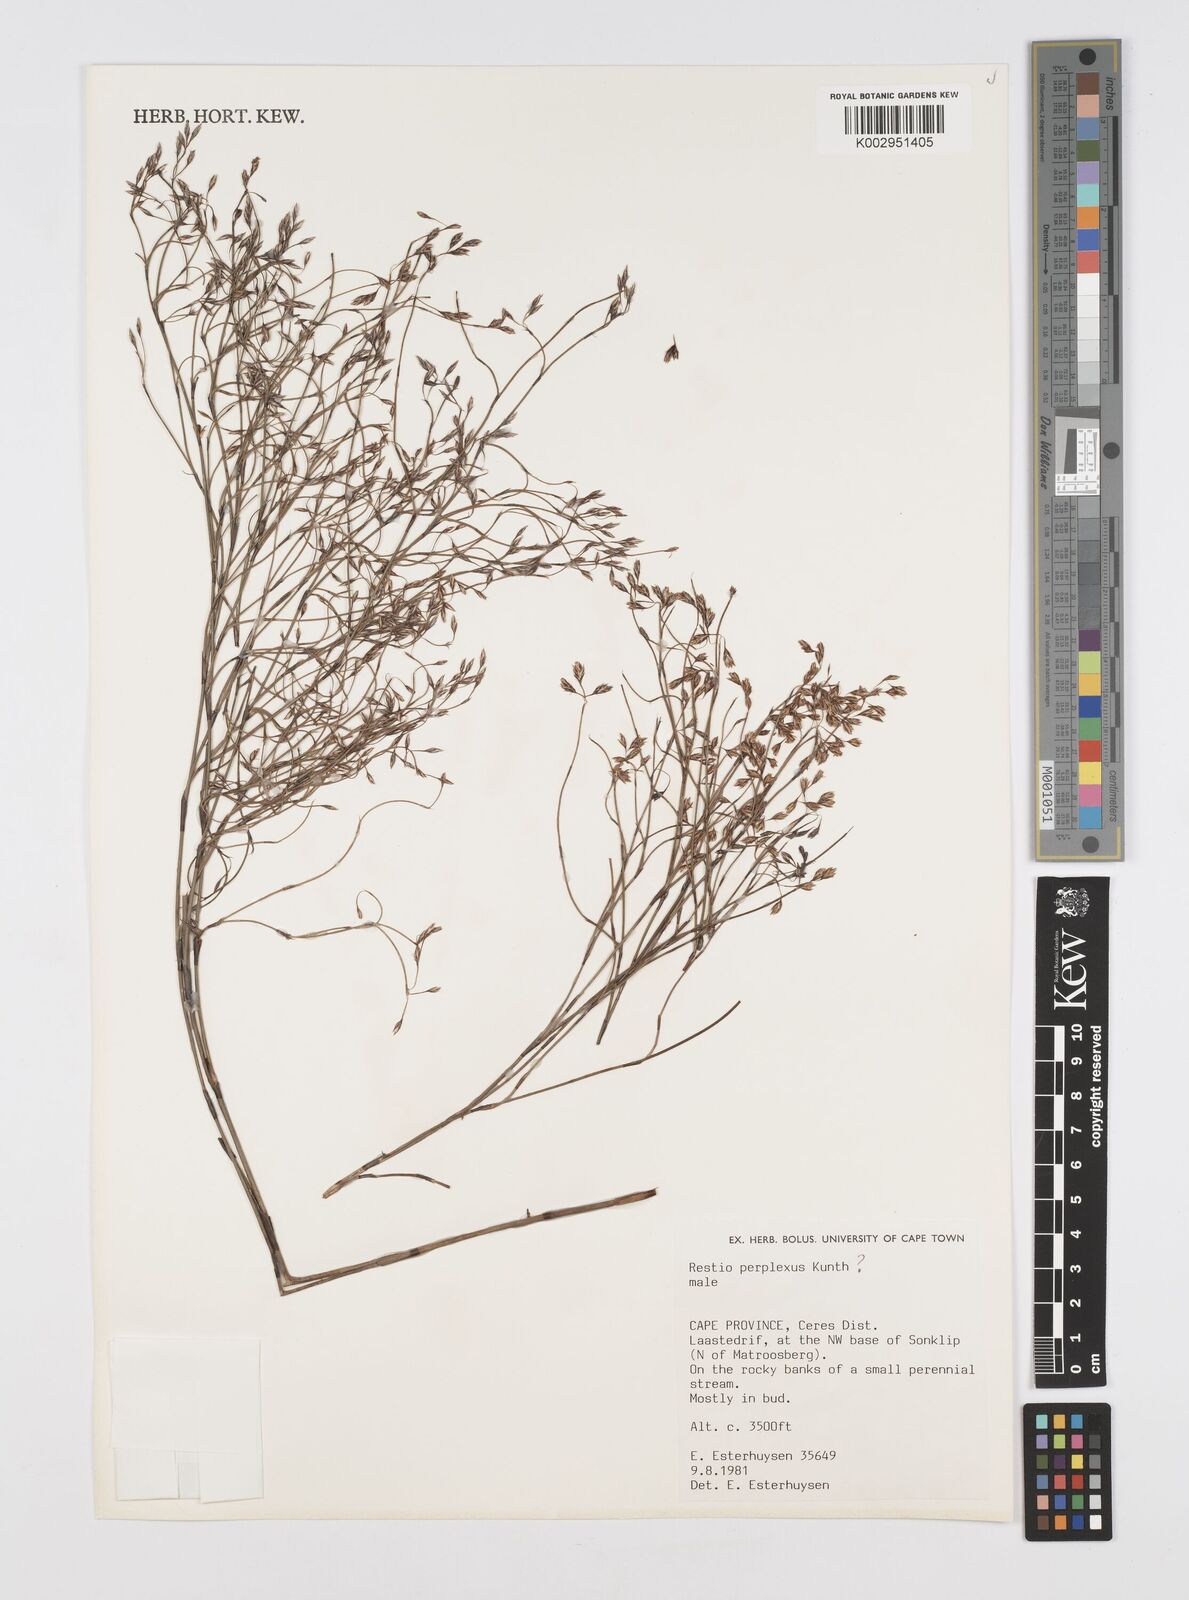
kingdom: Plantae
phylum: Tracheophyta
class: Liliopsida
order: Poales
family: Restionaceae
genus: Restio
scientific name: Restio perplexus
